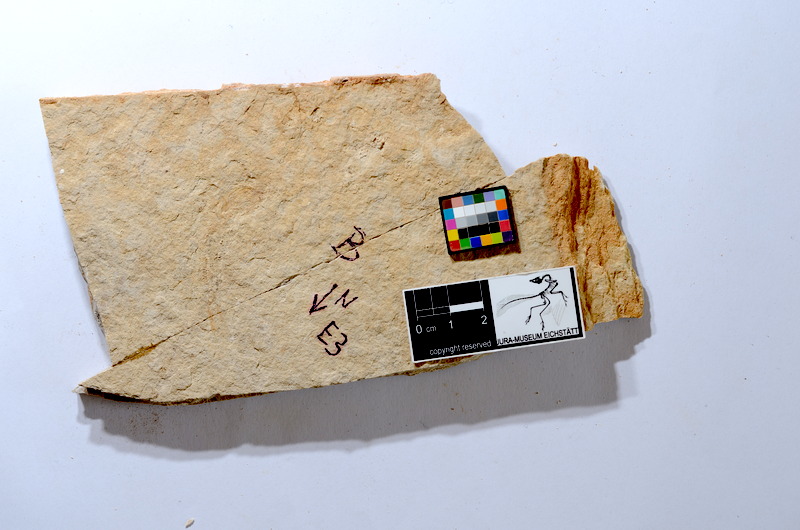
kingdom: Animalia
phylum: Chordata
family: Ascalaboidae
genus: Tharsis
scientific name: Tharsis dubius
